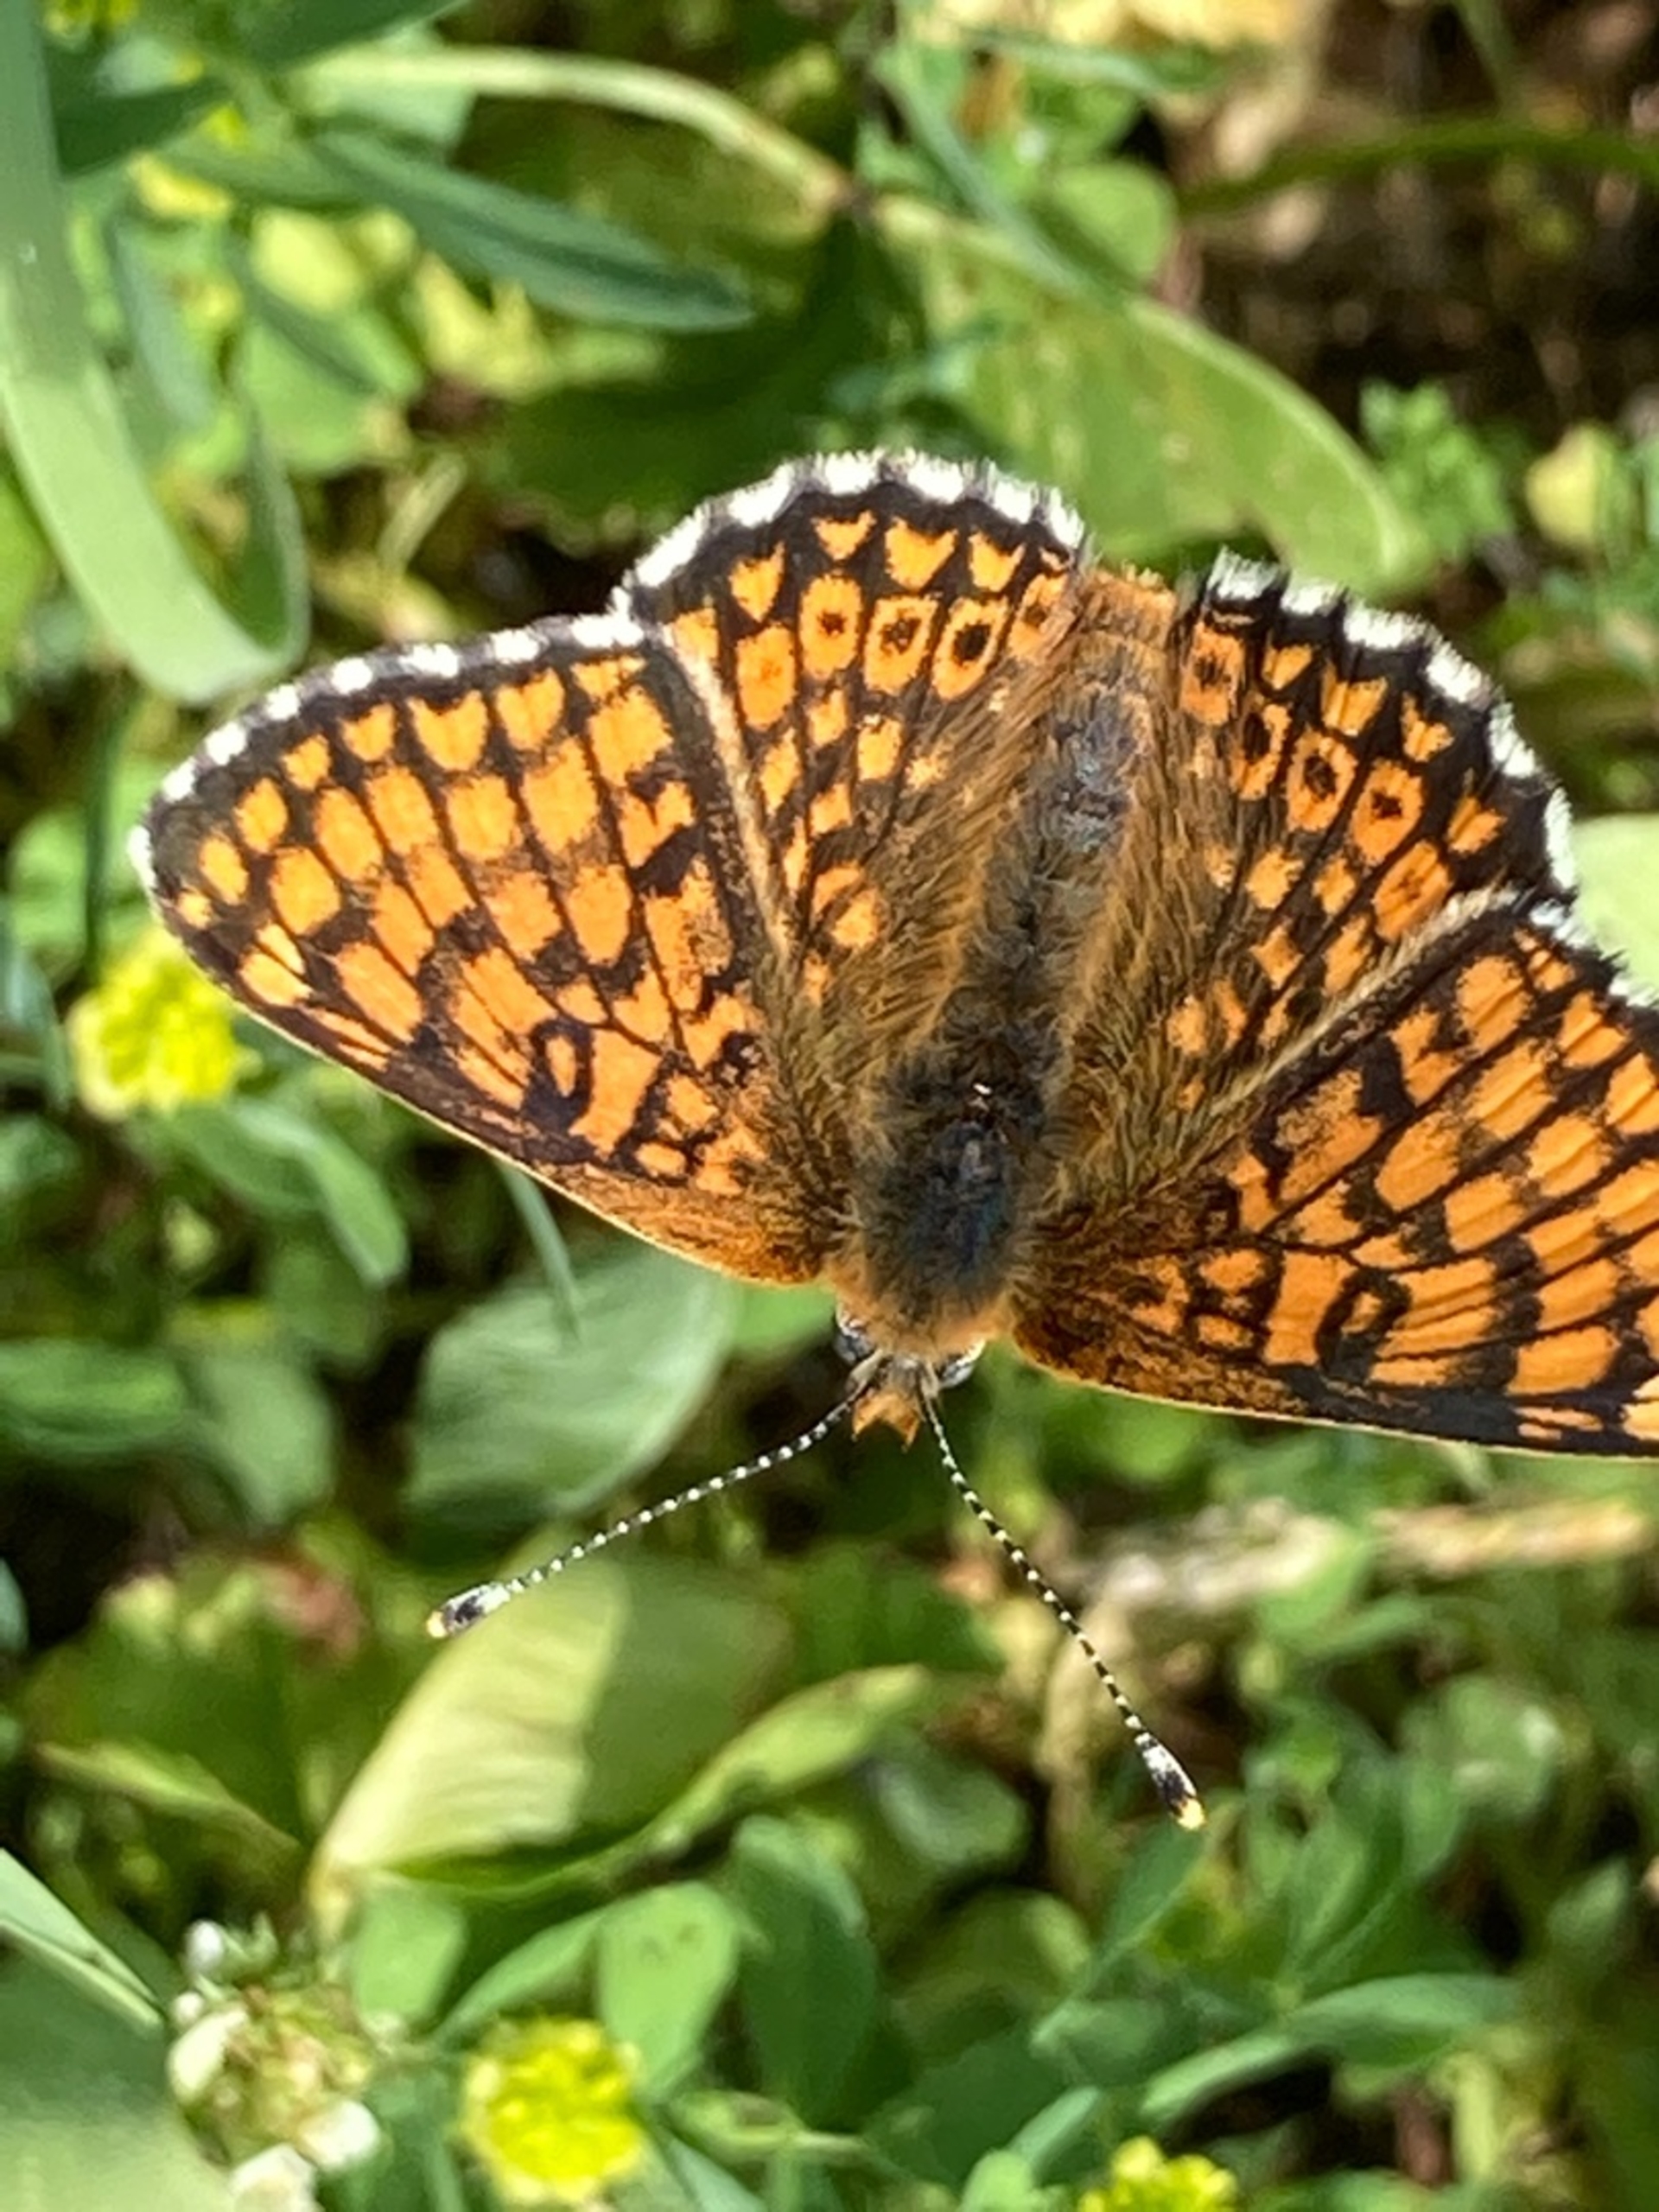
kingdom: Animalia
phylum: Arthropoda
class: Insecta
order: Lepidoptera
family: Nymphalidae
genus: Melitaea
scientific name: Melitaea cinxia
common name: Okkergul pletvinge
